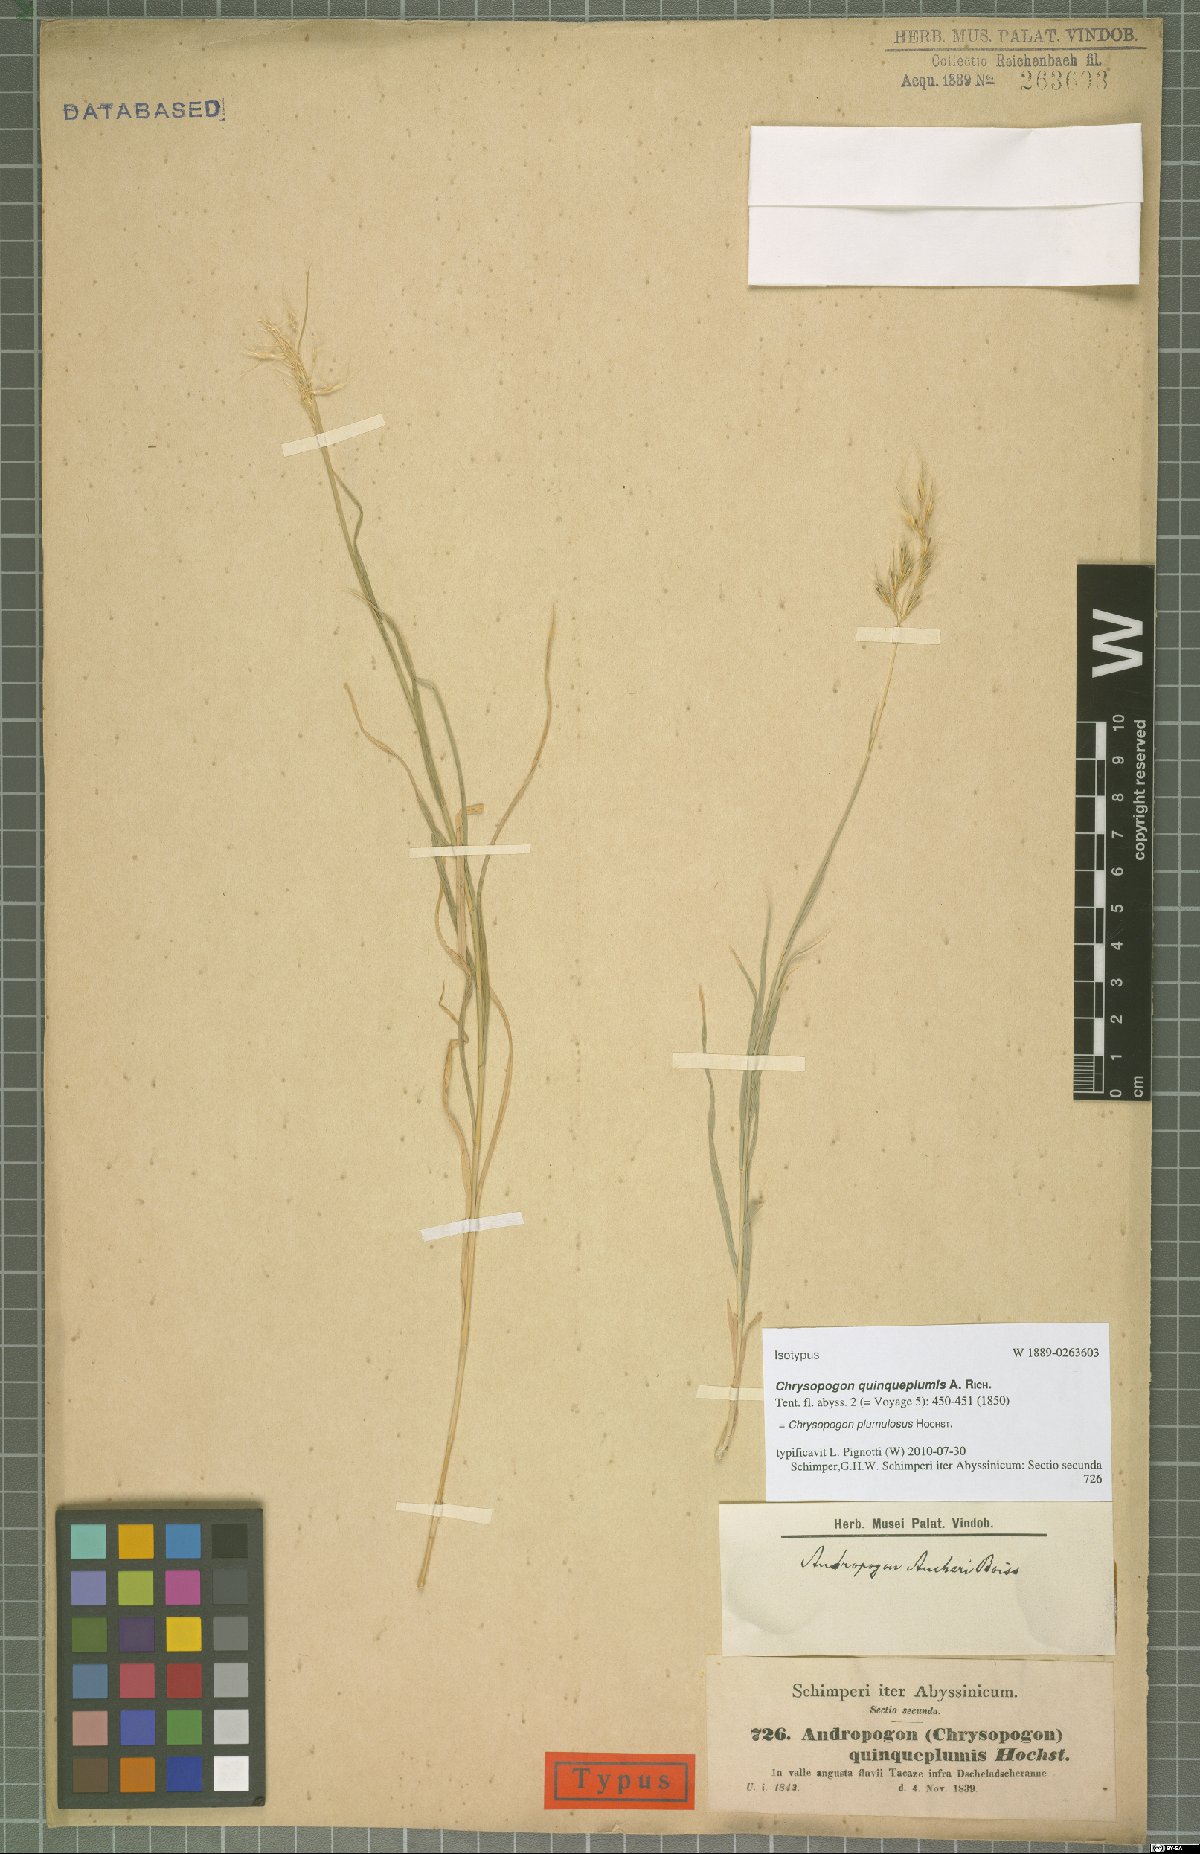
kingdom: Plantae
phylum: Tracheophyta
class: Liliopsida
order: Poales
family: Poaceae
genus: Chrysopogon
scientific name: Chrysopogon plumulosus
